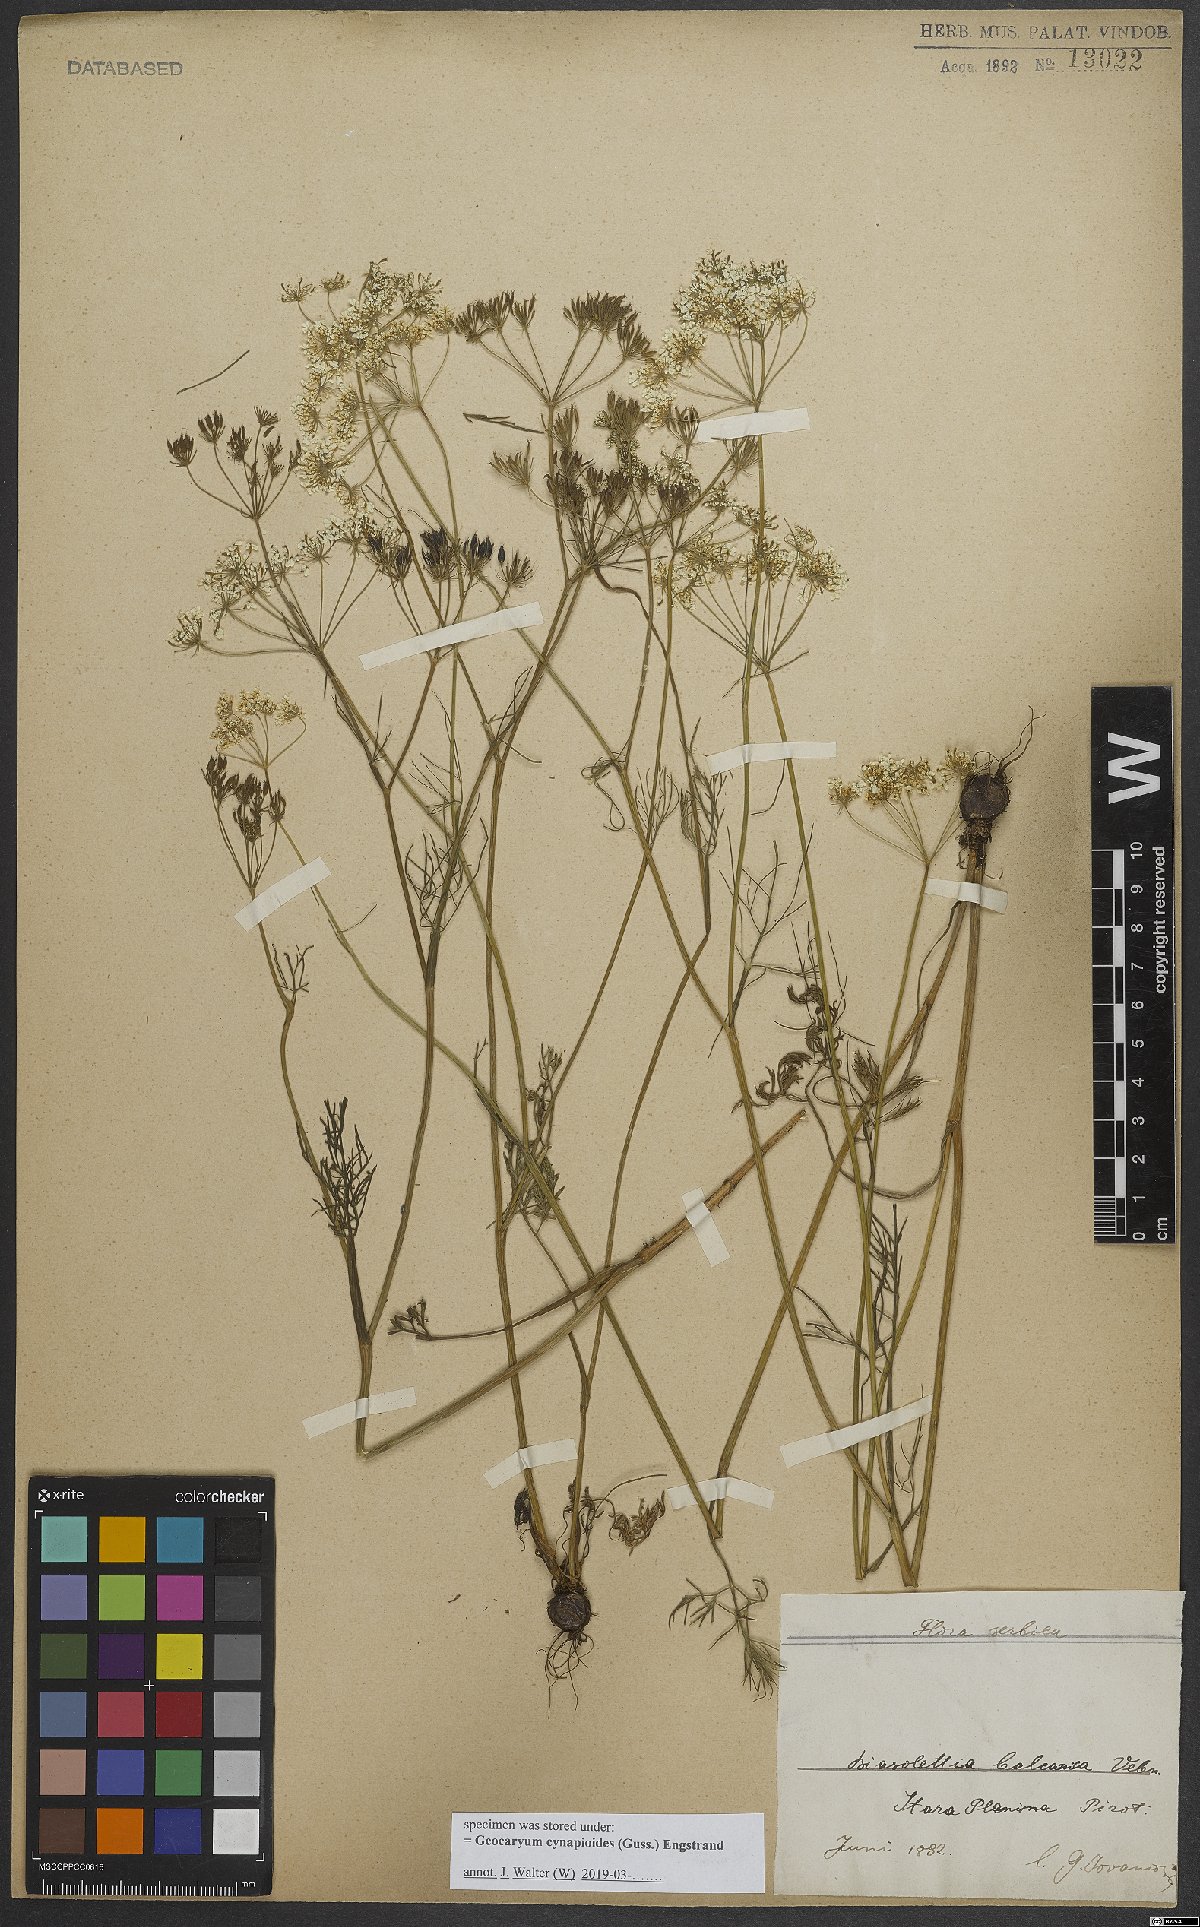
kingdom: Plantae
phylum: Tracheophyta
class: Magnoliopsida
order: Apiales
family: Apiaceae
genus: Geocaryum
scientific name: Geocaryum cynapioides
